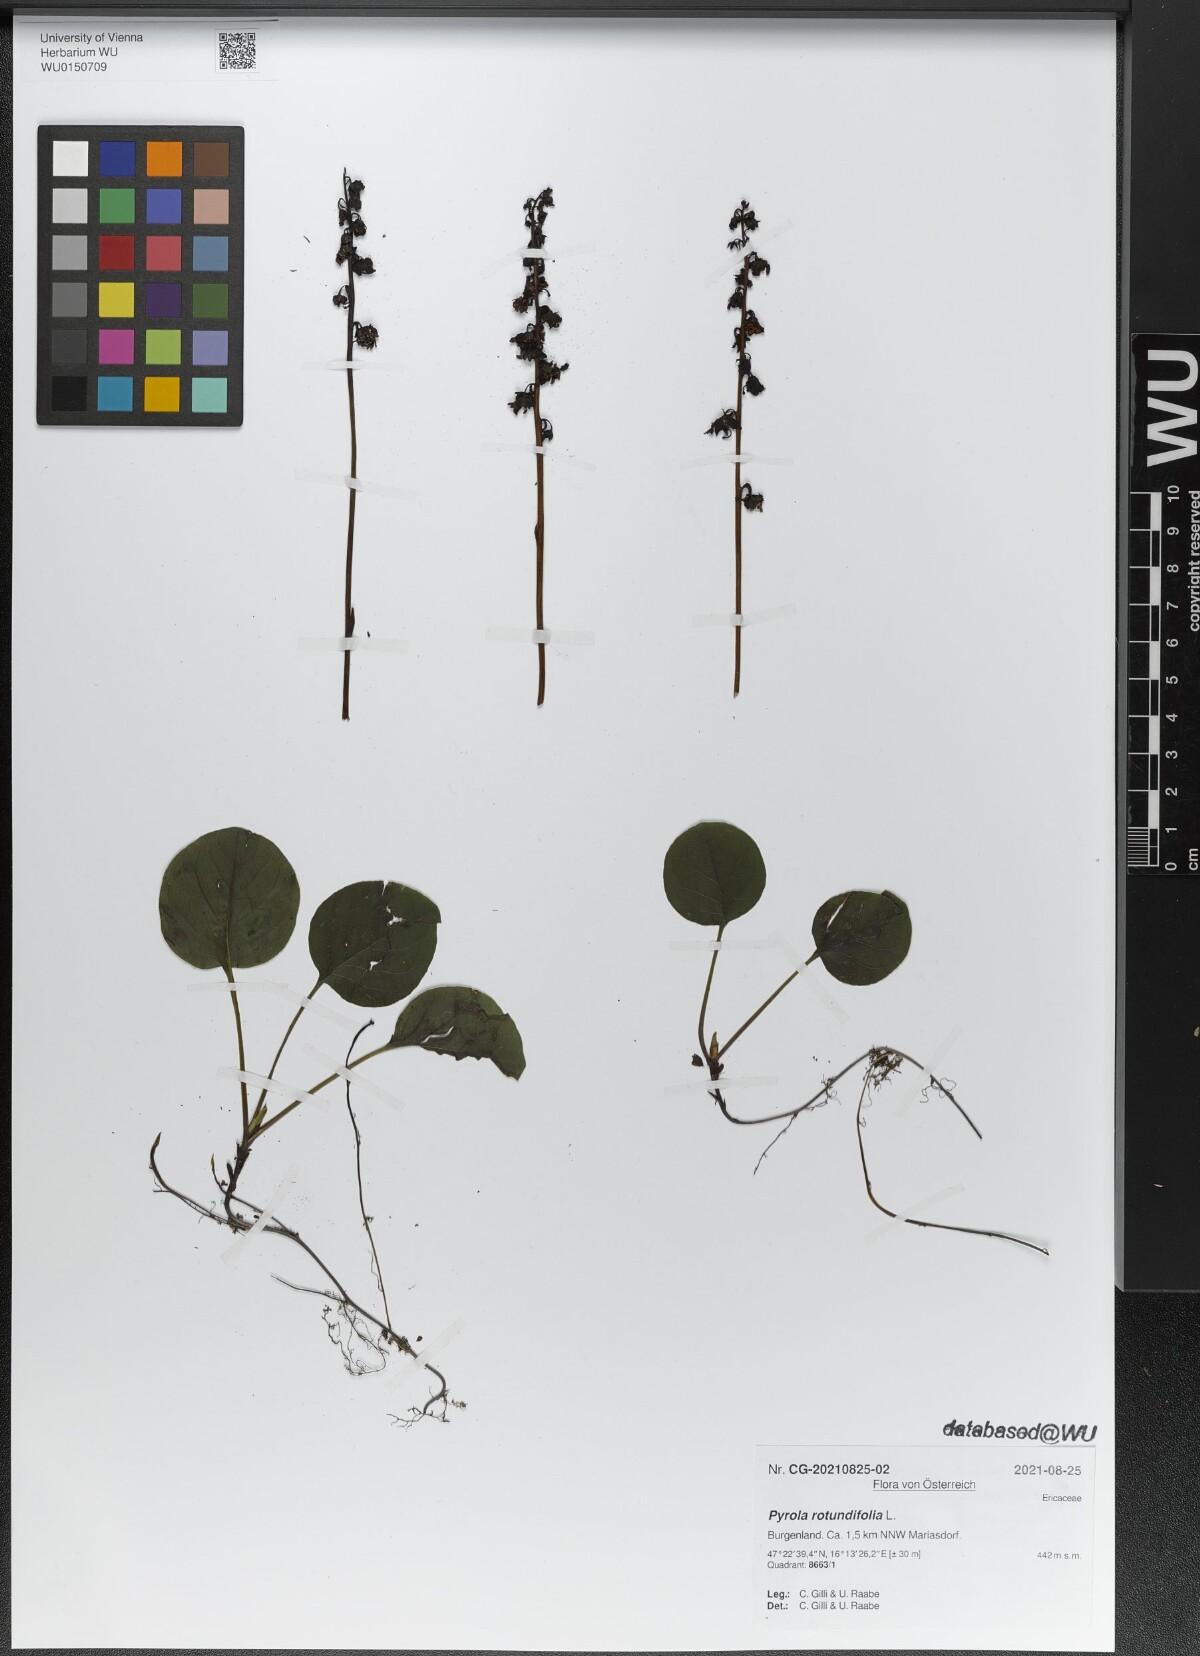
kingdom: Plantae
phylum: Tracheophyta
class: Magnoliopsida
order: Ericales
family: Ericaceae
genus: Pyrola
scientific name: Pyrola rotundifolia
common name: Round-leaved wintergreen
